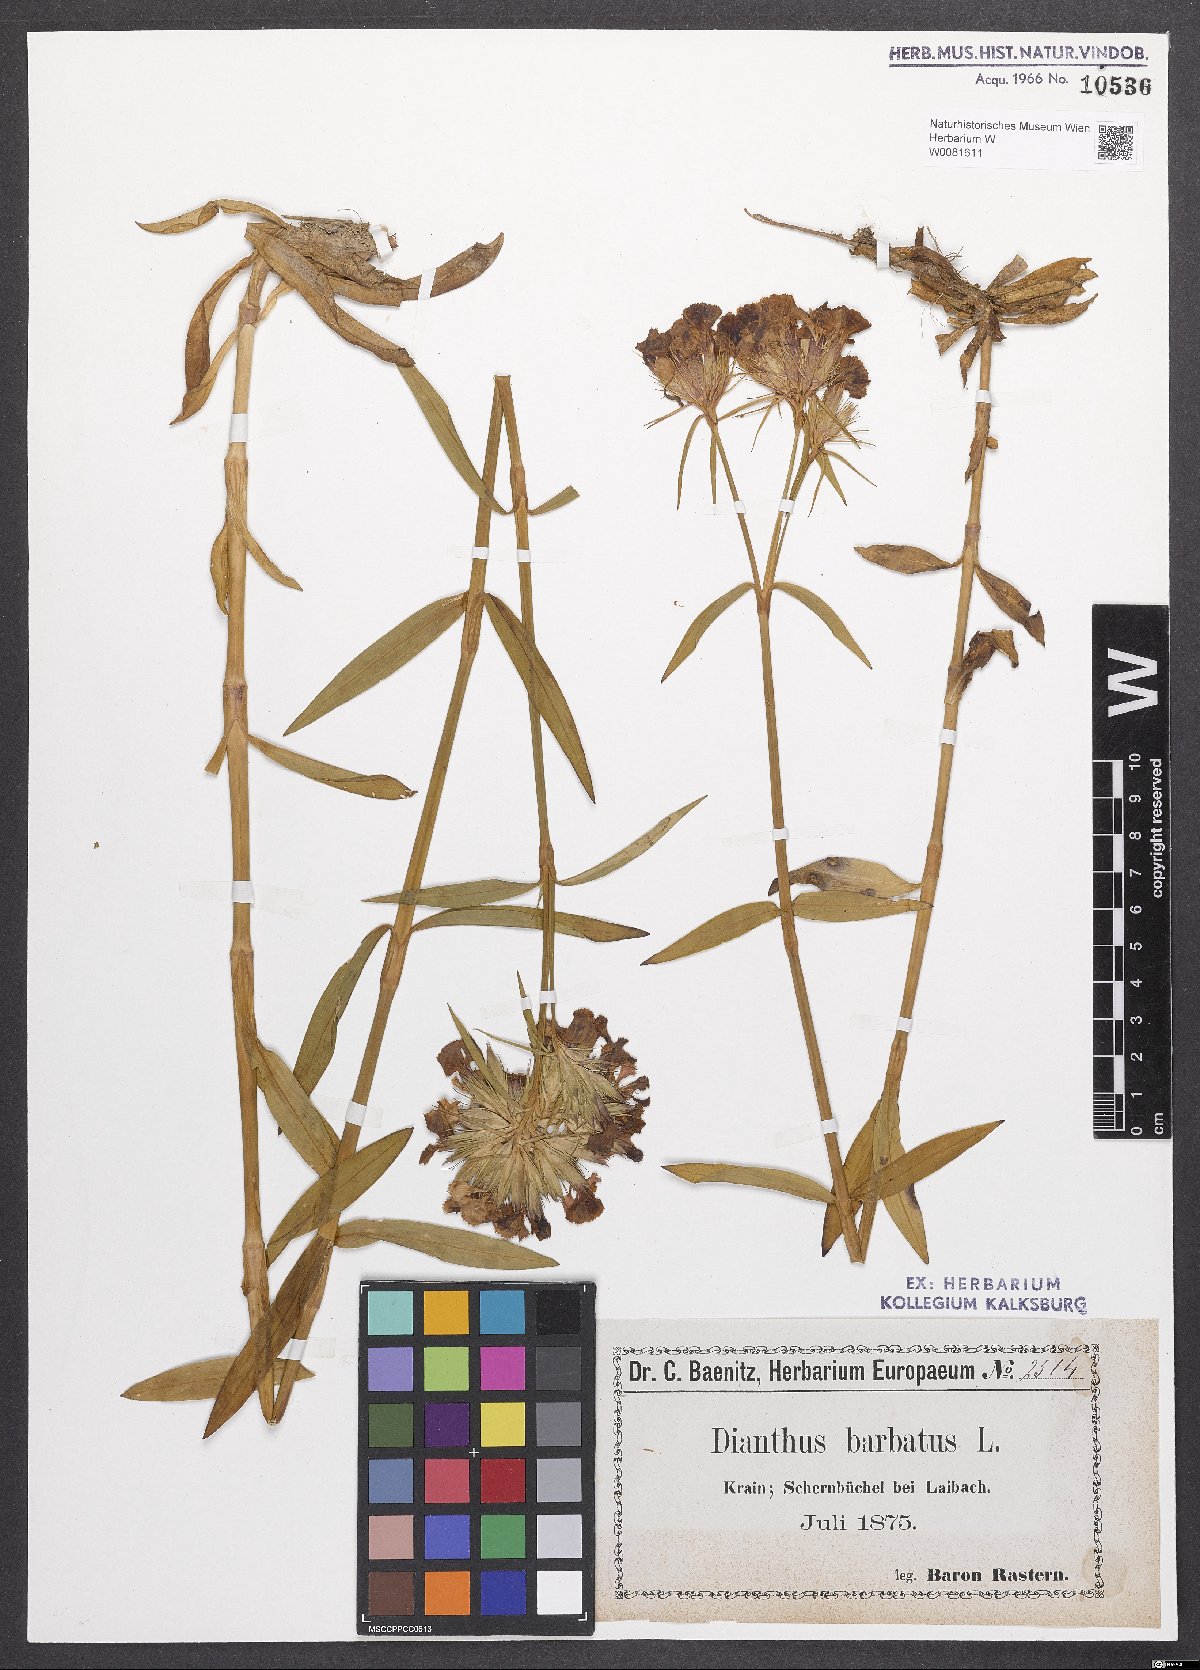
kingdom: Plantae
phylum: Tracheophyta
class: Magnoliopsida
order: Caryophyllales
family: Caryophyllaceae
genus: Dianthus
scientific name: Dianthus barbatus
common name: Sweet-william
